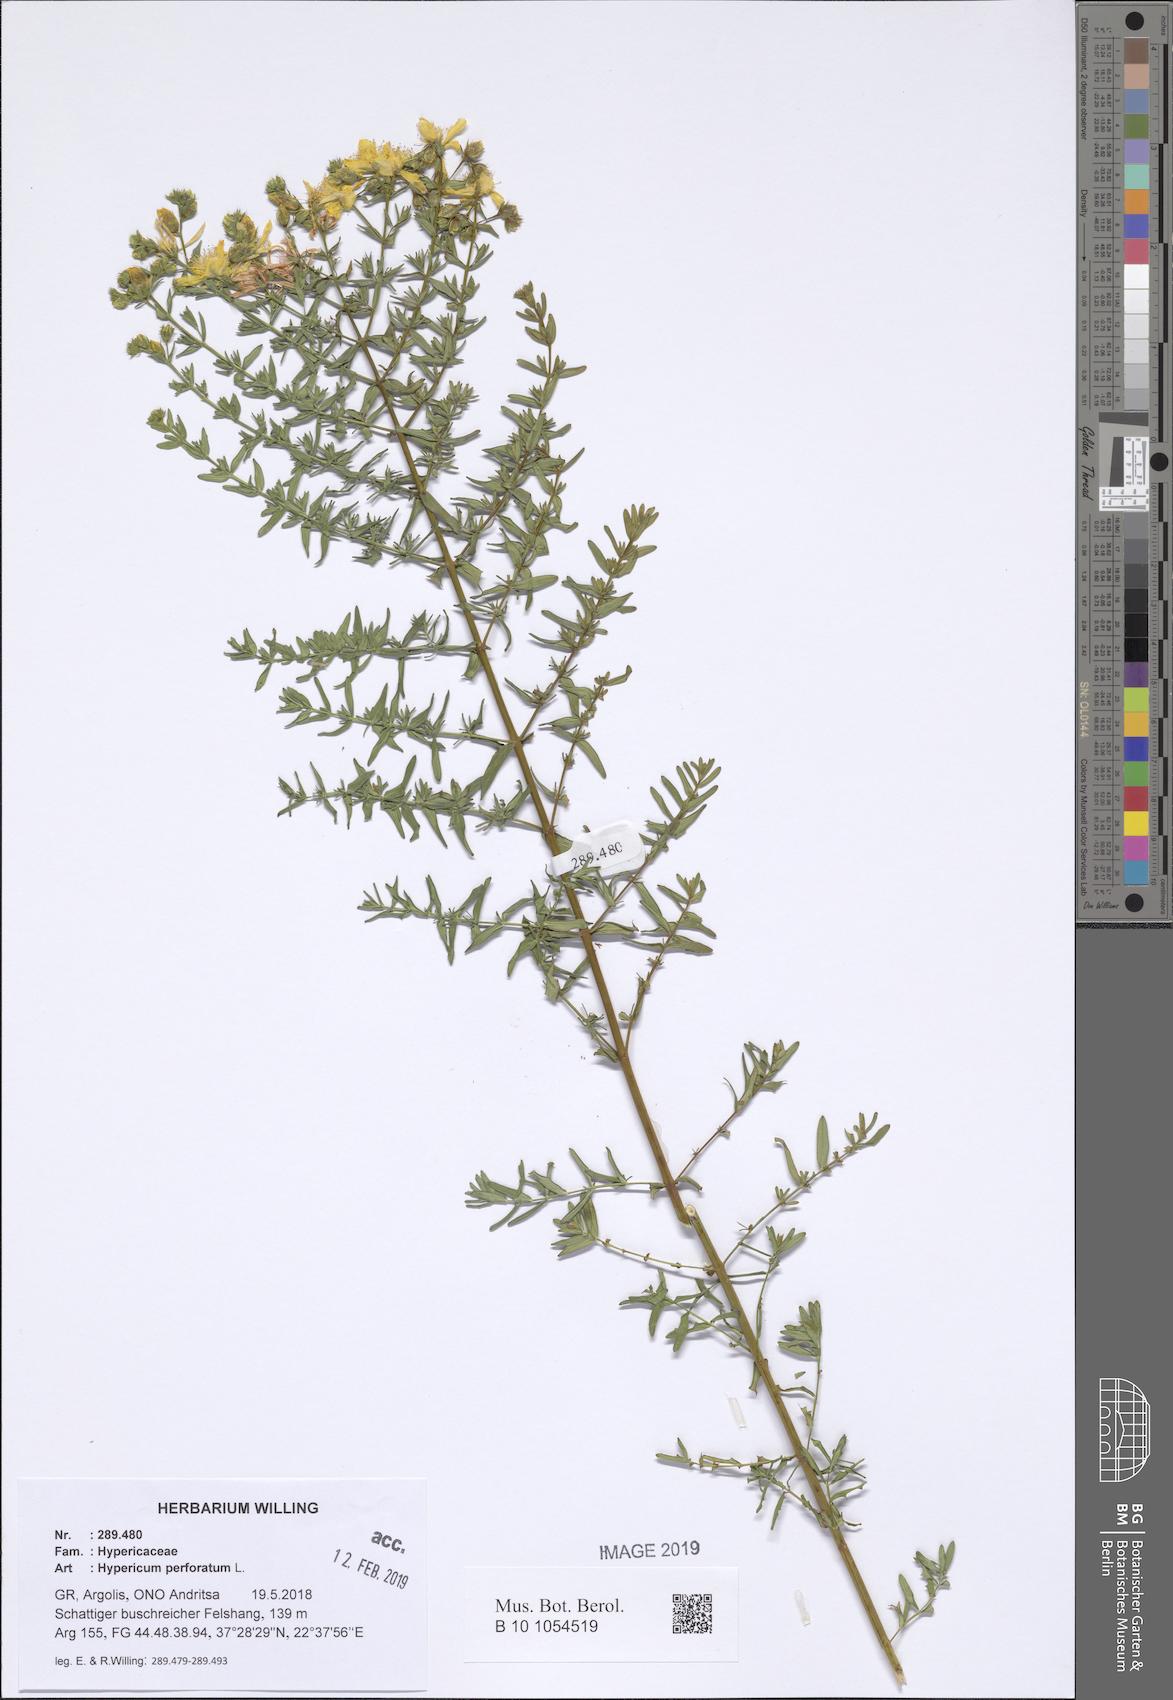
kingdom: Plantae
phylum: Tracheophyta
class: Magnoliopsida
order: Malpighiales
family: Hypericaceae
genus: Hypericum
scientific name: Hypericum perforatum
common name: Common st. johnswort
